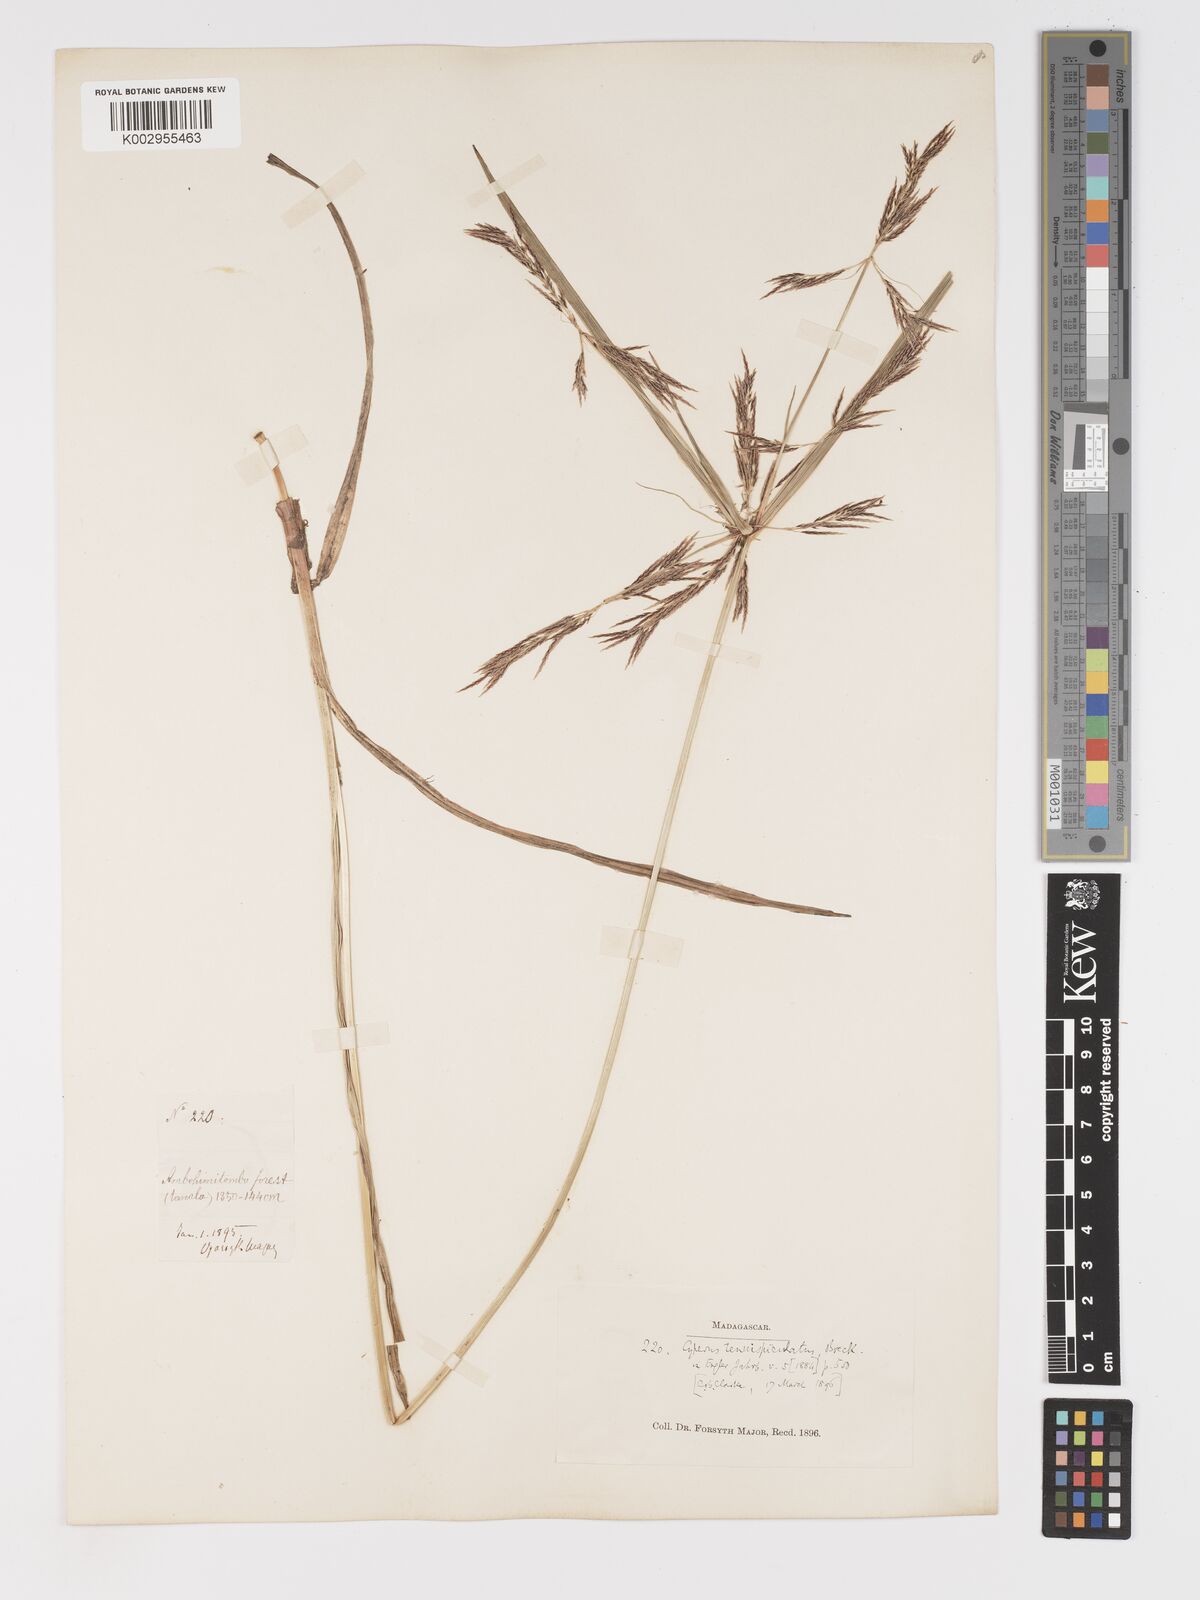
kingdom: Plantae
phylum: Tracheophyta
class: Liliopsida
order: Poales
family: Cyperaceae
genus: Cyperus
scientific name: Cyperus tenuispiculatus
